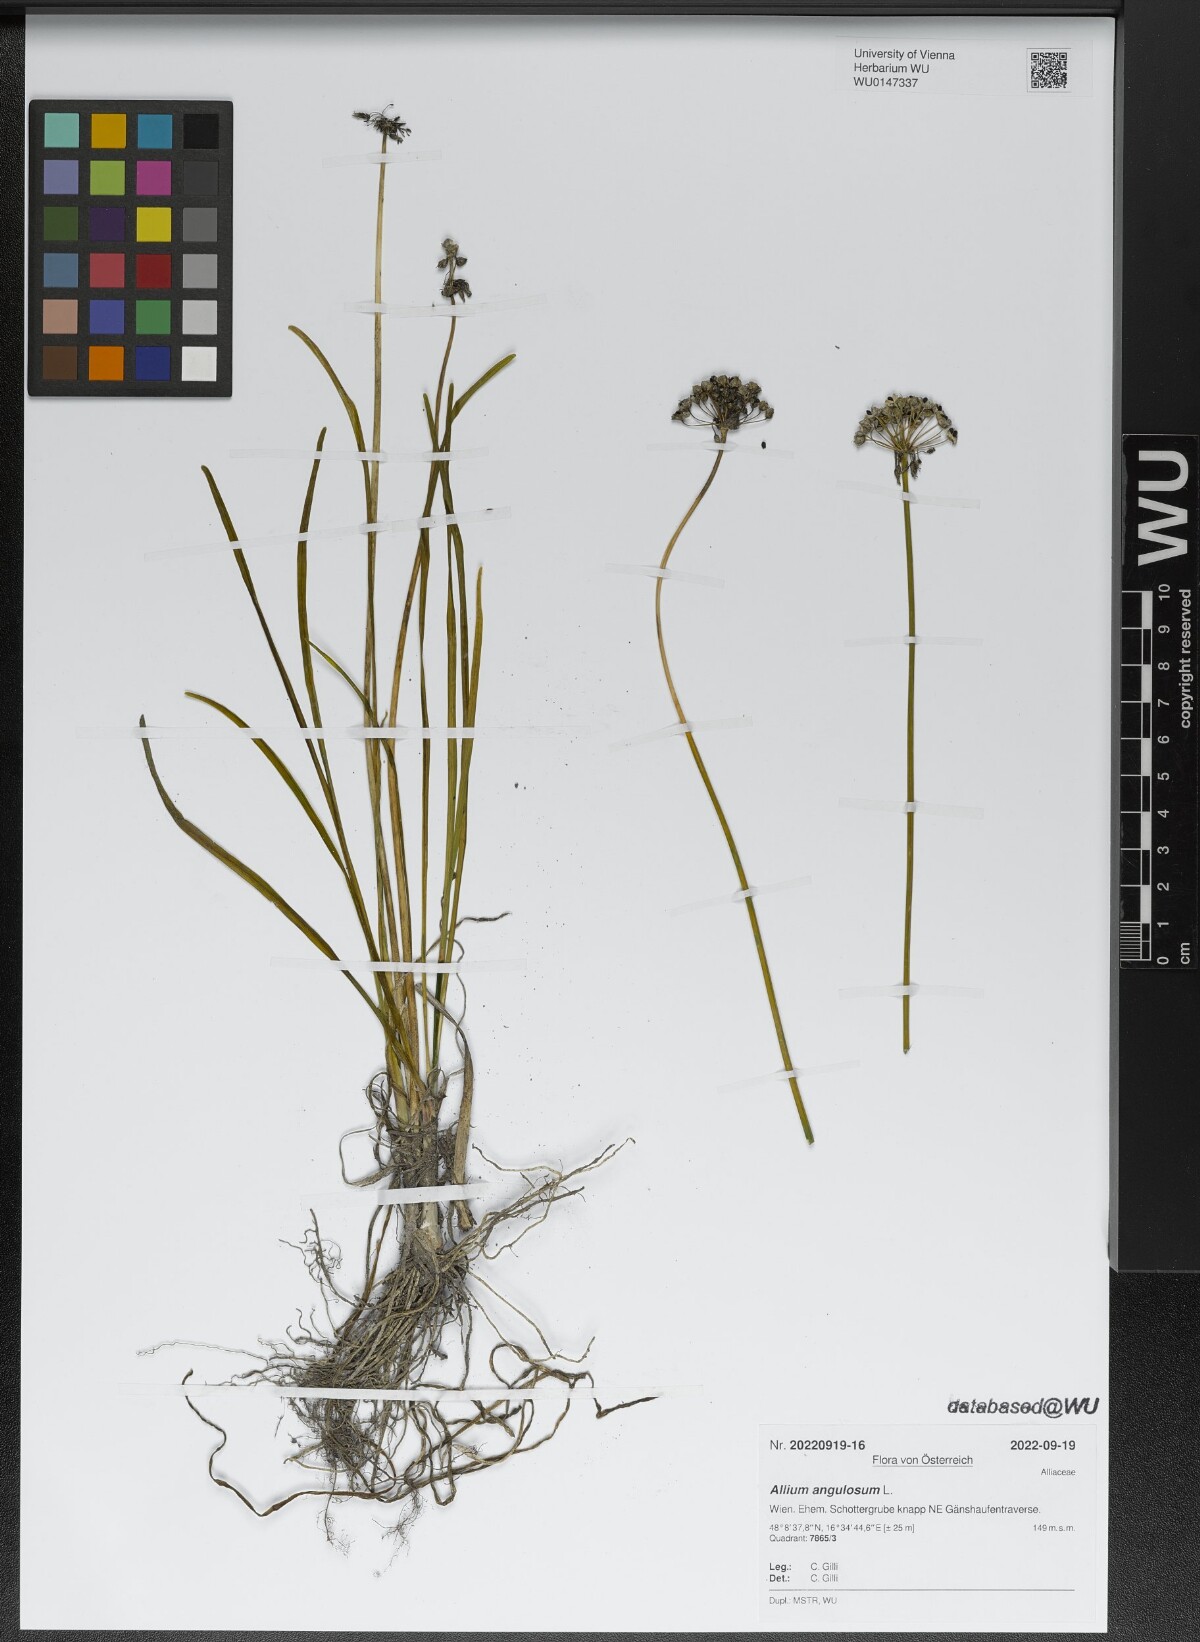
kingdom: Plantae
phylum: Tracheophyta
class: Liliopsida
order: Asparagales
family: Amaryllidaceae
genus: Allium
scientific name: Allium angulosum
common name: Mouse garlic
